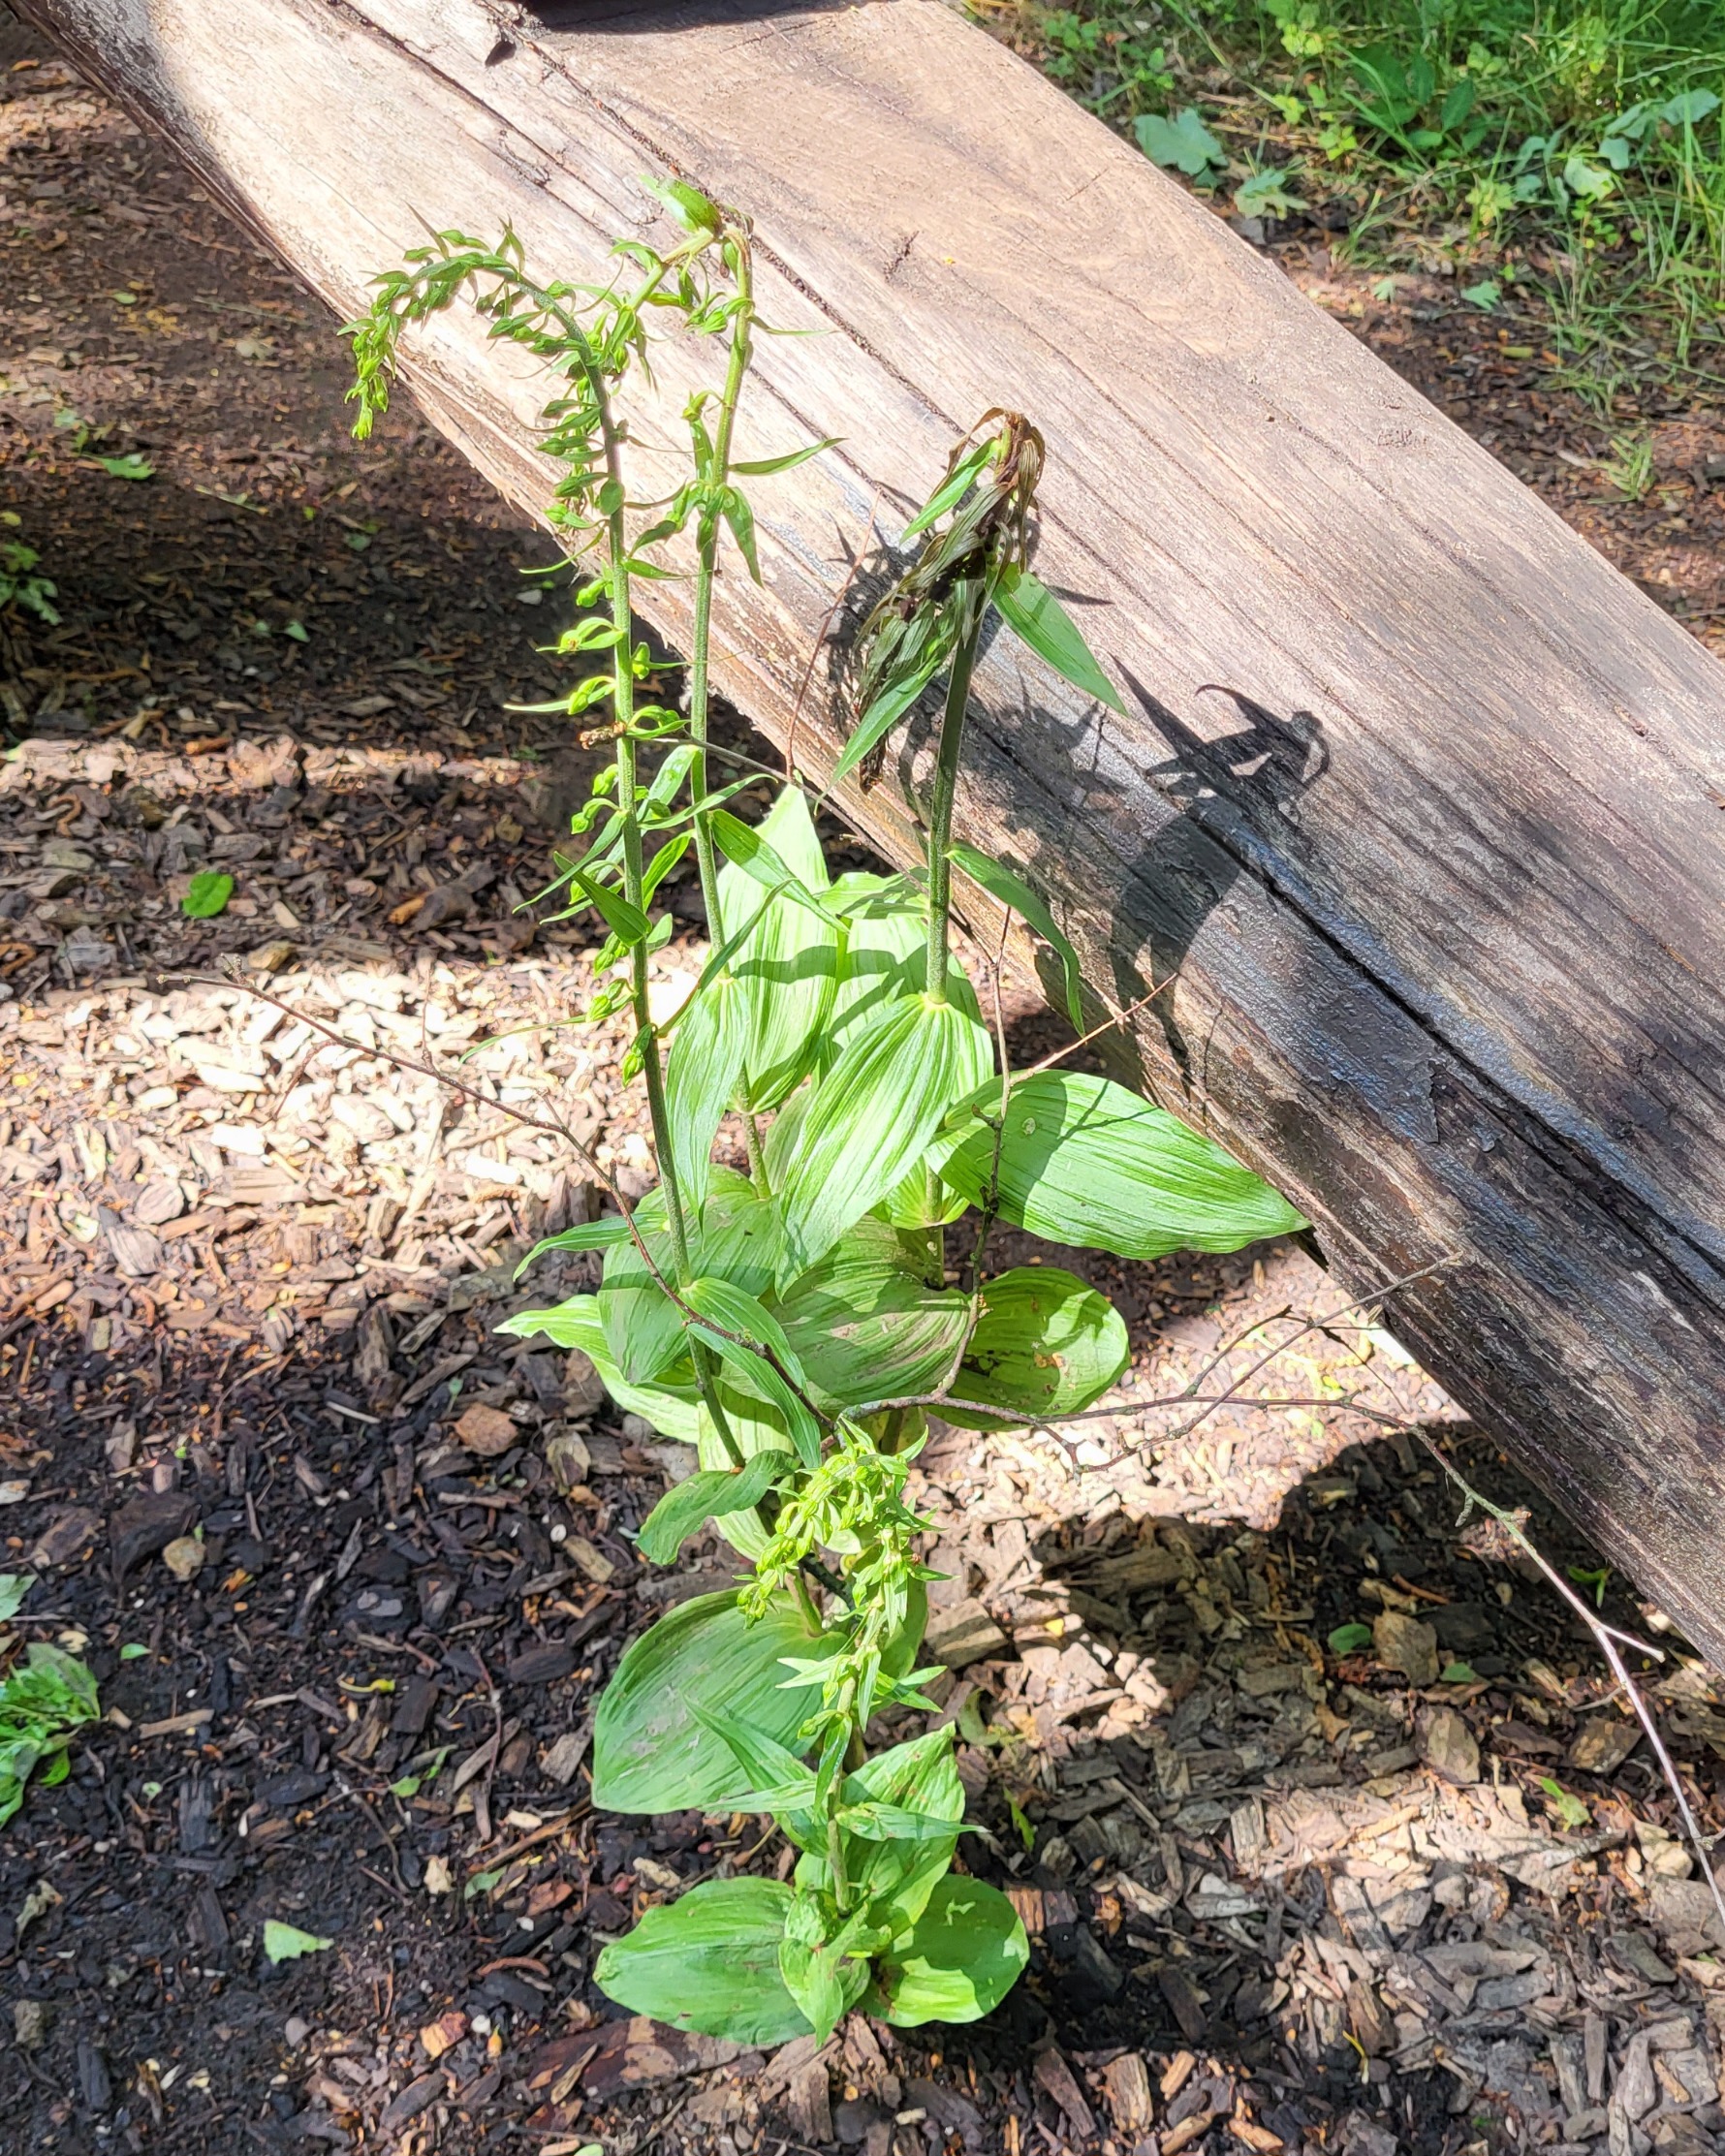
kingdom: Plantae
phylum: Tracheophyta
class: Liliopsida
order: Asparagales
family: Orchidaceae
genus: Epipactis
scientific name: Epipactis helleborine
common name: Skov-hullæbe
